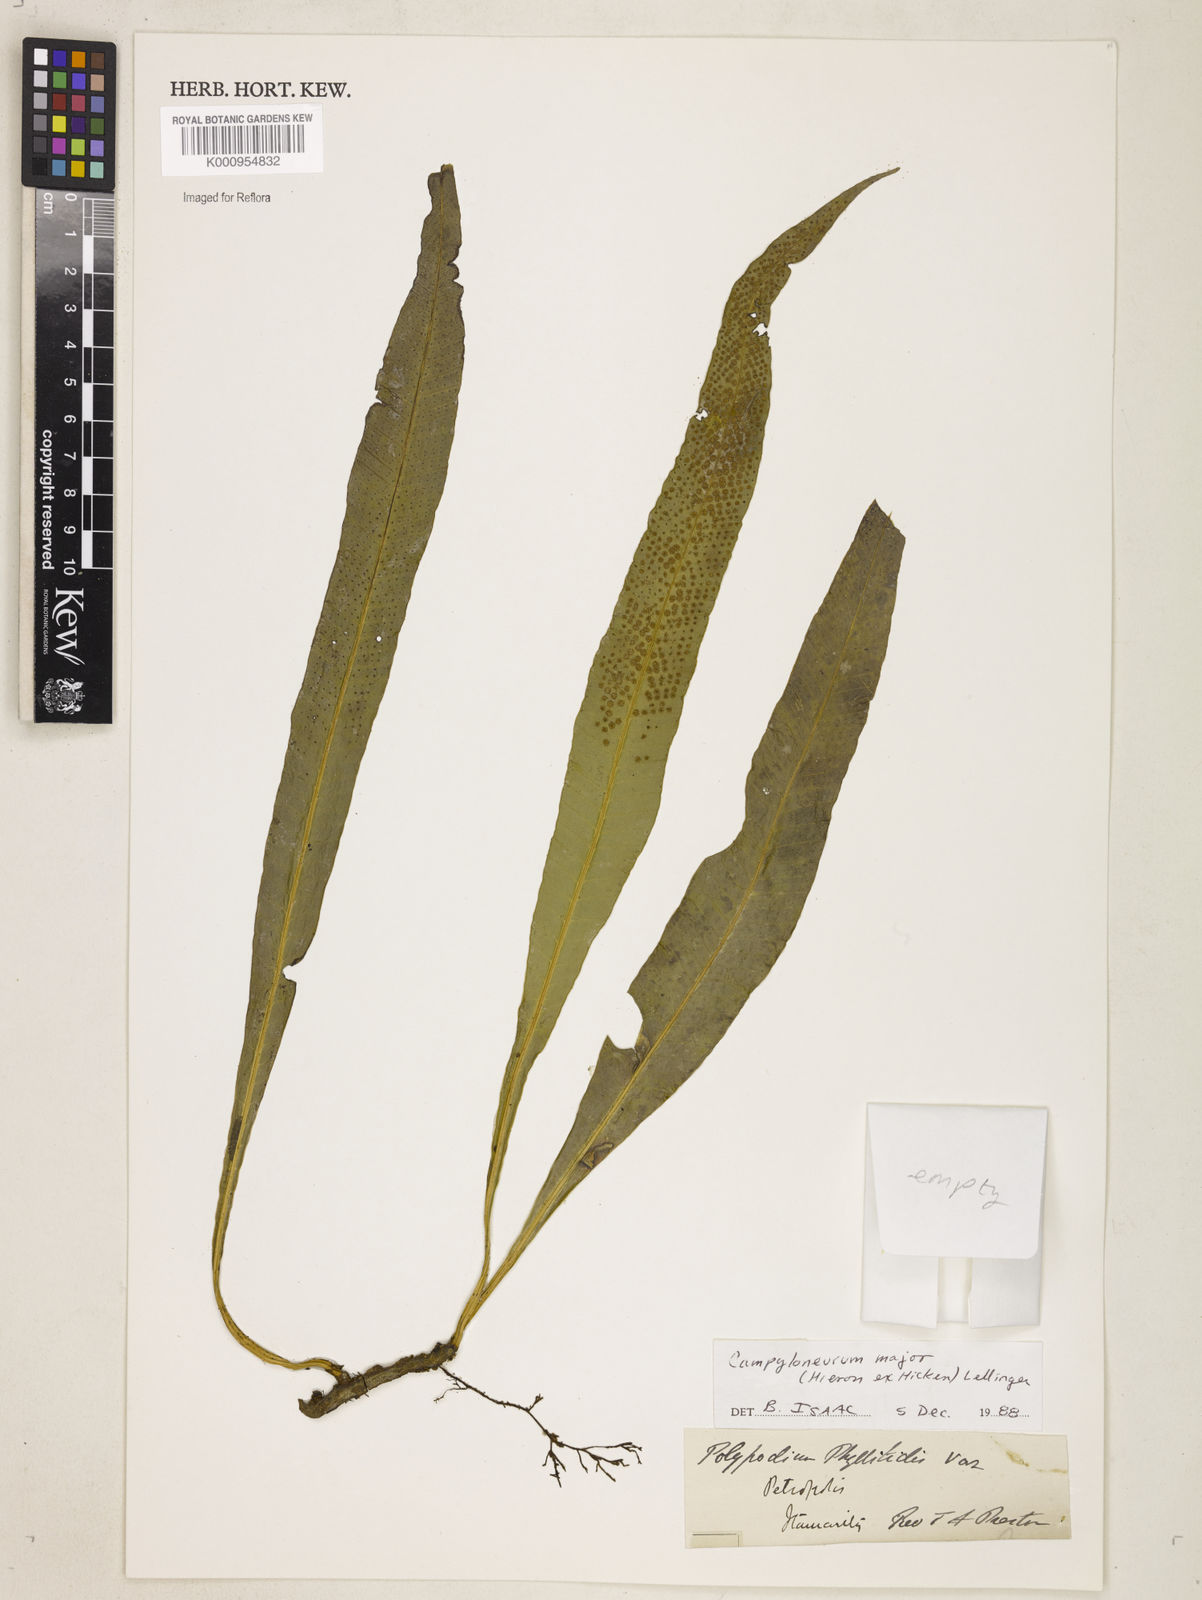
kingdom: Plantae
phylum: Tracheophyta
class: Polypodiopsida
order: Polypodiales
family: Polypodiaceae
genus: Campyloneurum
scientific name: Campyloneurum majus
